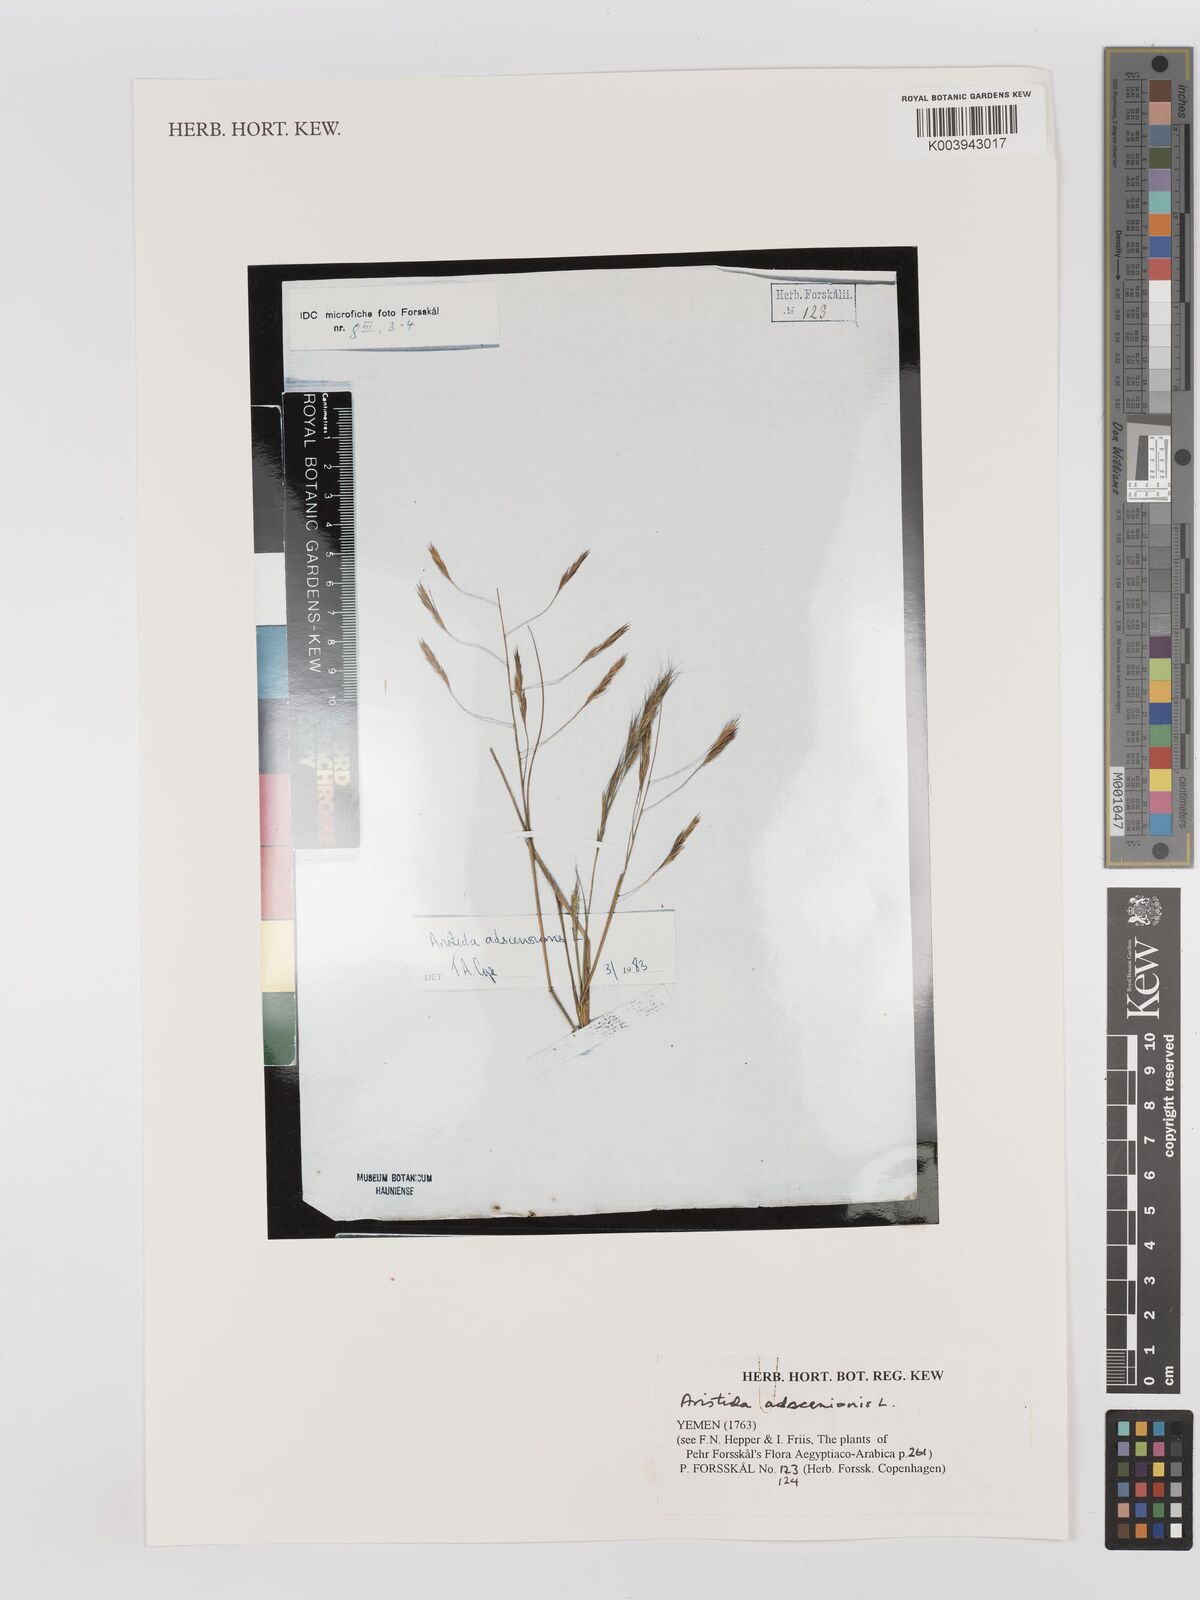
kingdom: Plantae
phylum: Tracheophyta
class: Liliopsida
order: Poales
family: Poaceae
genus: Aristida
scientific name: Aristida adscensionis
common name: Sixweeks threeawn
